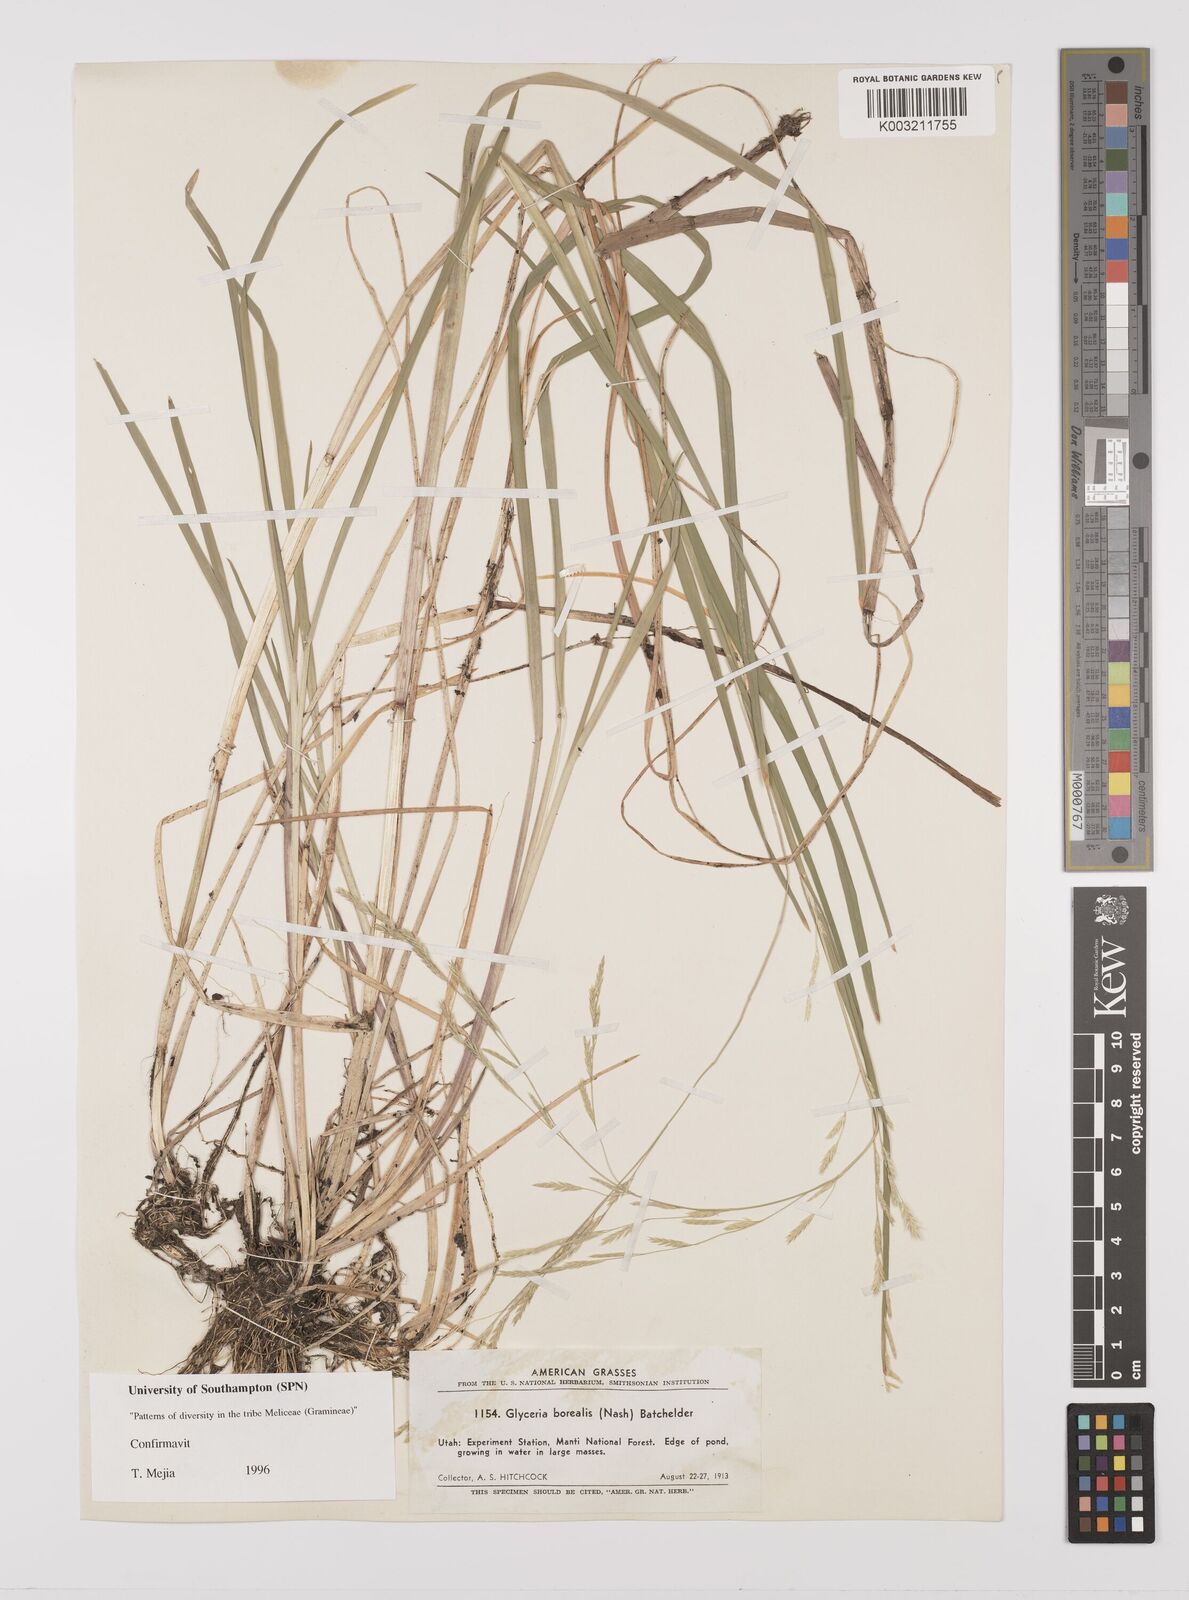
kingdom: Plantae
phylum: Tracheophyta
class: Liliopsida
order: Poales
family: Poaceae
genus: Glyceria
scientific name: Glyceria borealis
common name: Boreal glyceria
